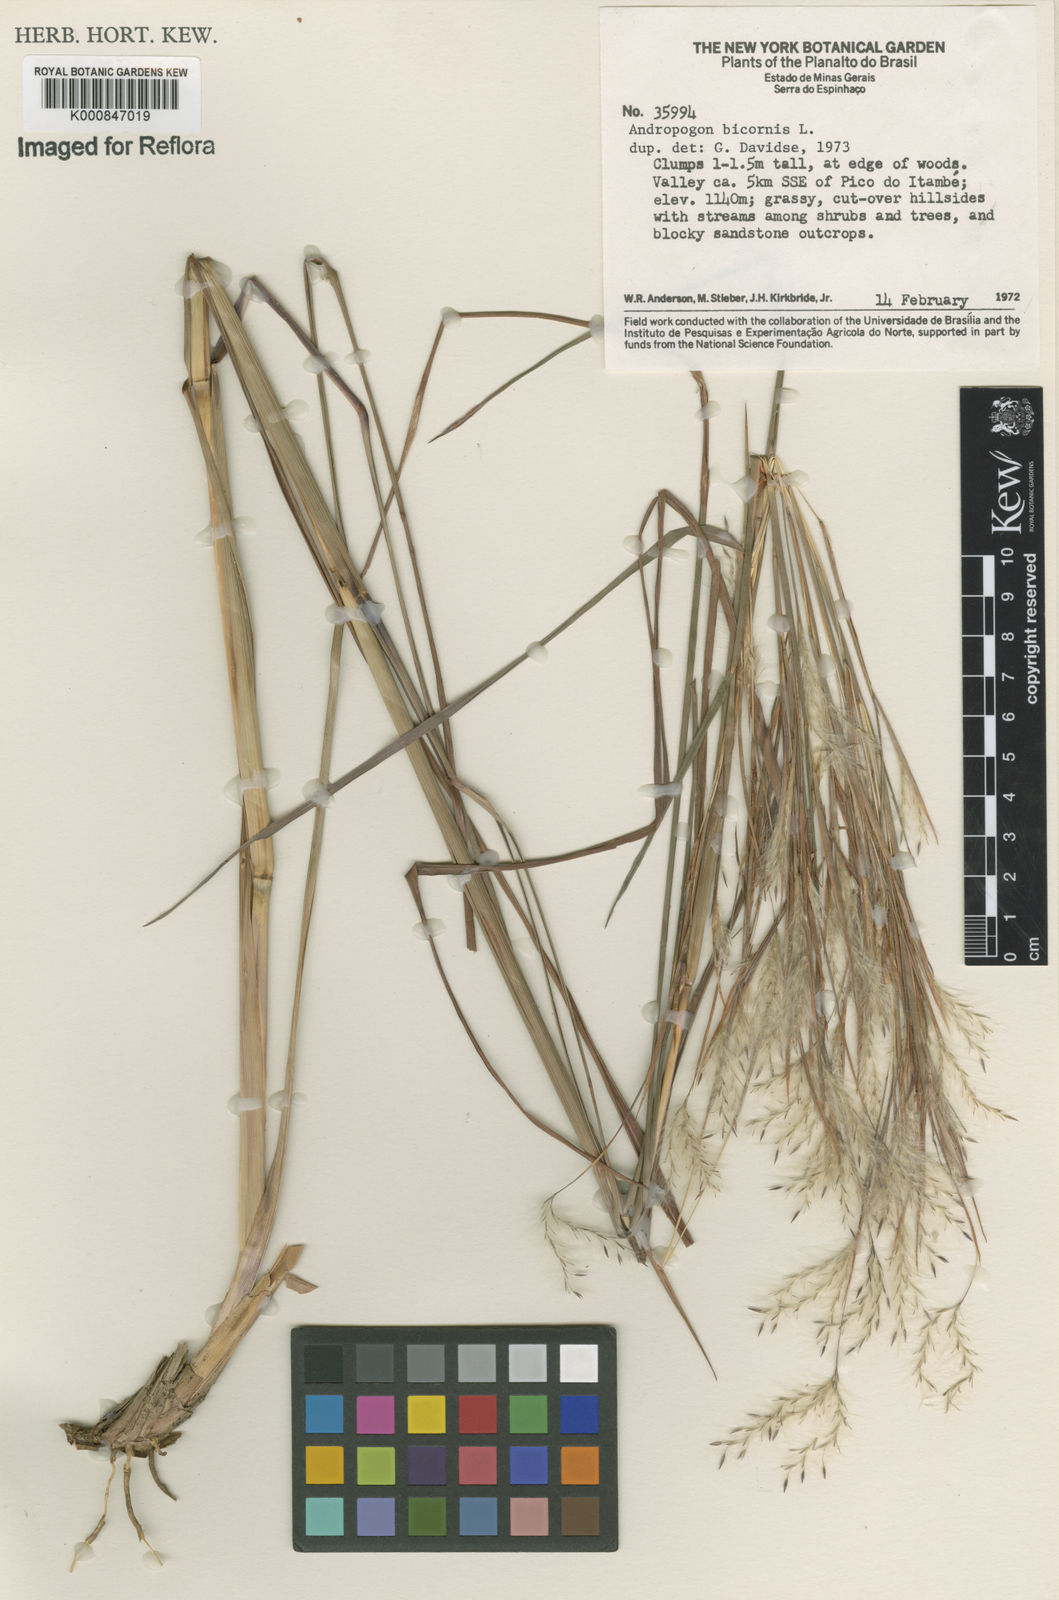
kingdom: Plantae
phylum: Tracheophyta
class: Liliopsida
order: Poales
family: Poaceae
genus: Andropogon
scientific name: Andropogon
